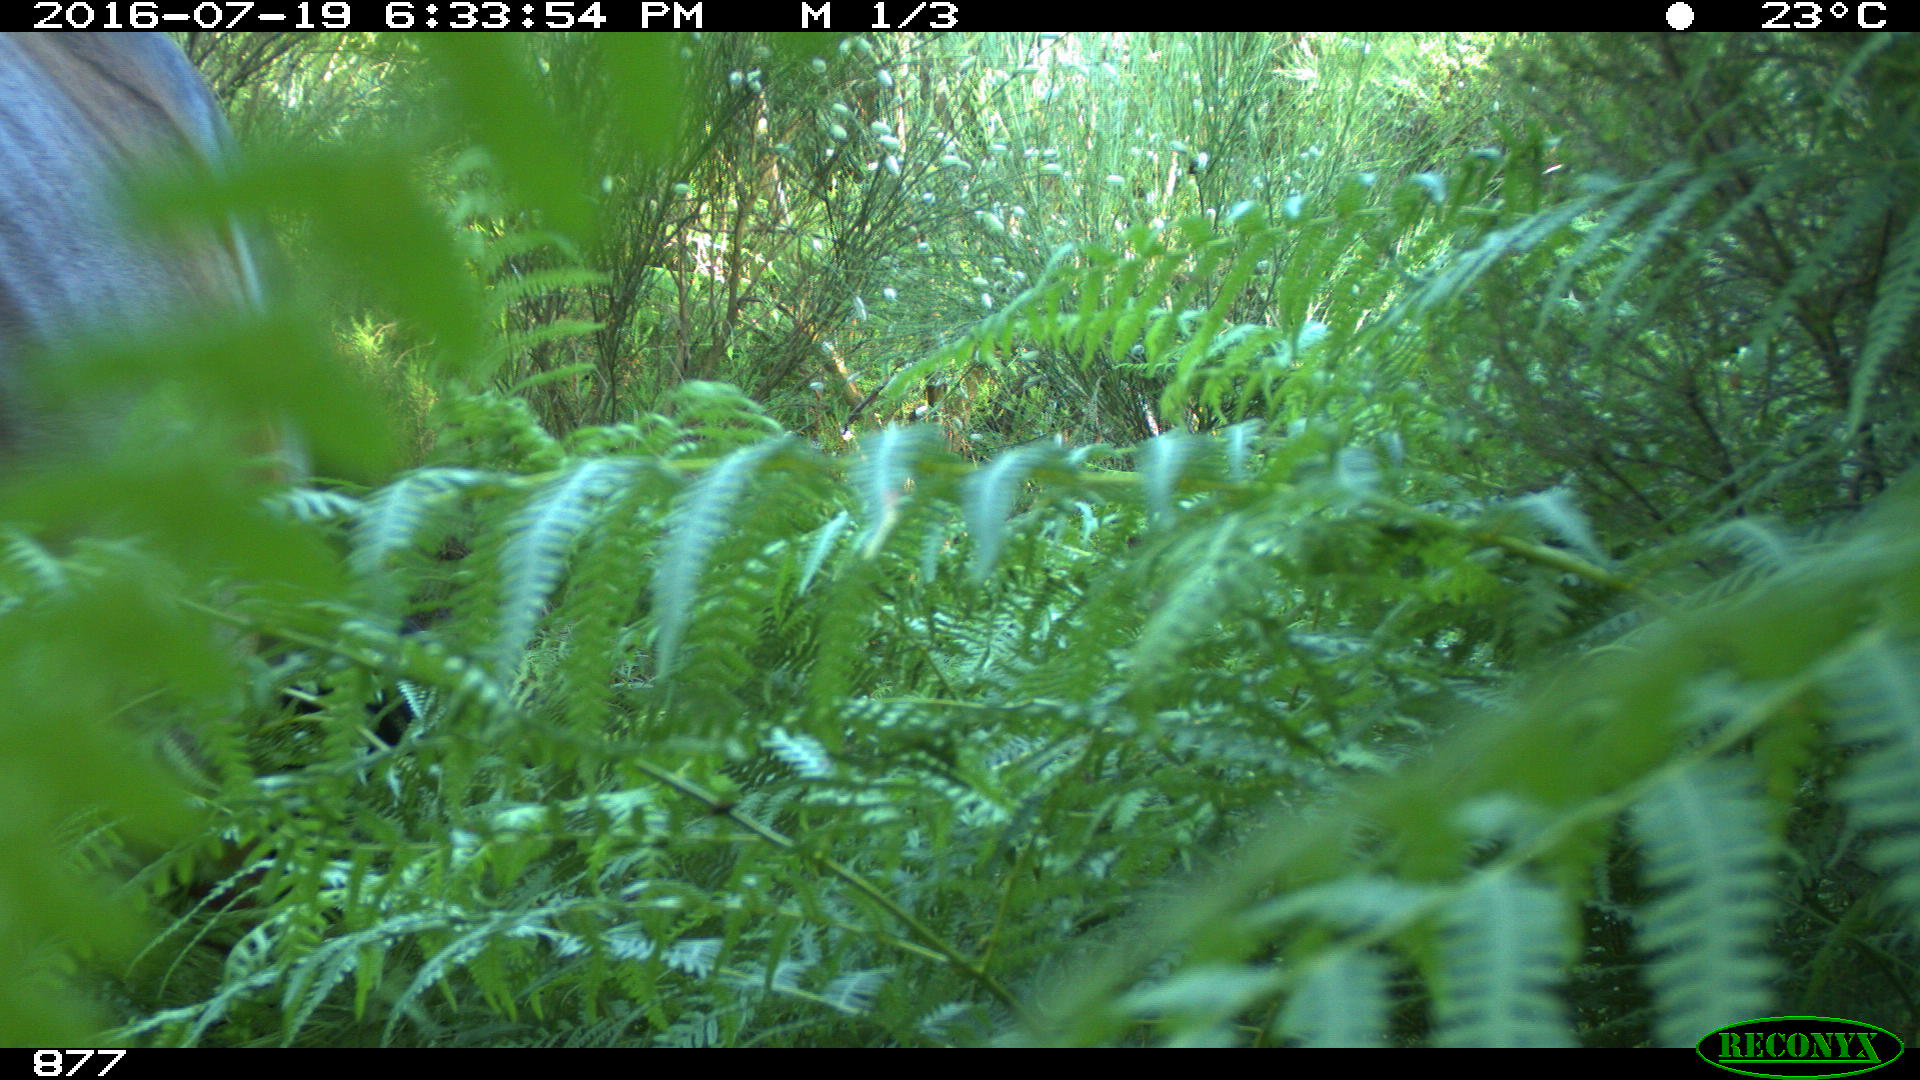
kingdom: Animalia
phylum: Chordata
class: Mammalia
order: Perissodactyla
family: Equidae
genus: Equus
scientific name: Equus caballus
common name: Horse
